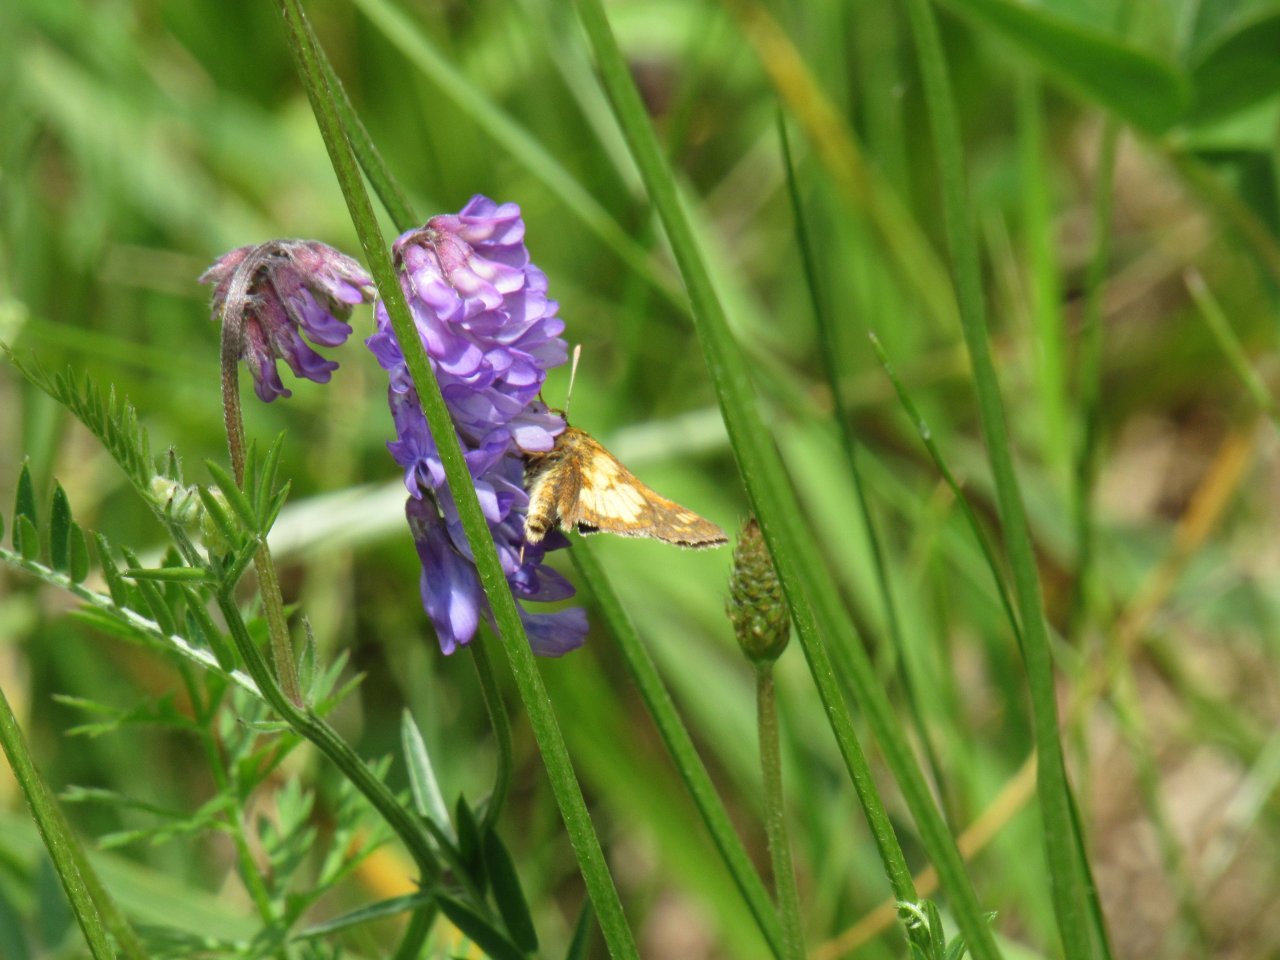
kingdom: Animalia
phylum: Arthropoda
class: Insecta
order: Lepidoptera
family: Hesperiidae
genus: Polites
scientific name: Polites coras
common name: Peck's Skipper
